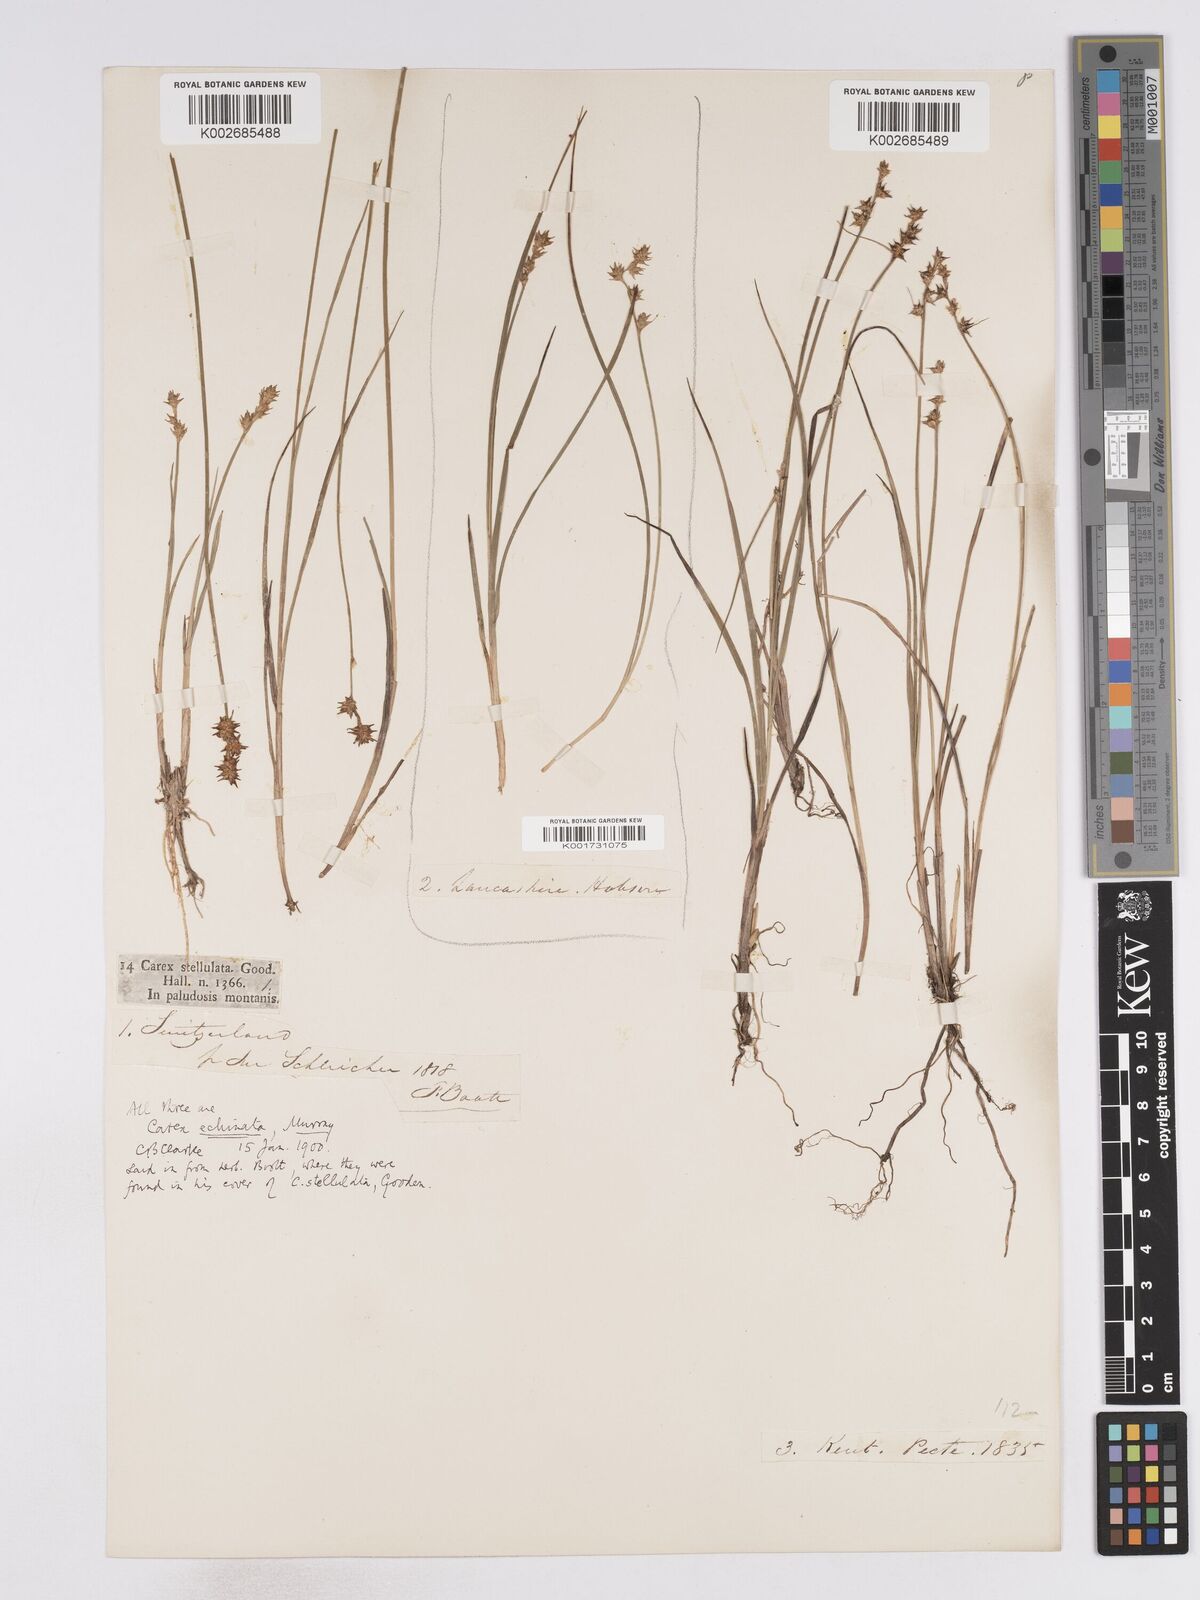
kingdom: Plantae
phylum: Tracheophyta
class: Liliopsida
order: Poales
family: Cyperaceae
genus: Carex
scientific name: Carex echinata
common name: Star sedge
